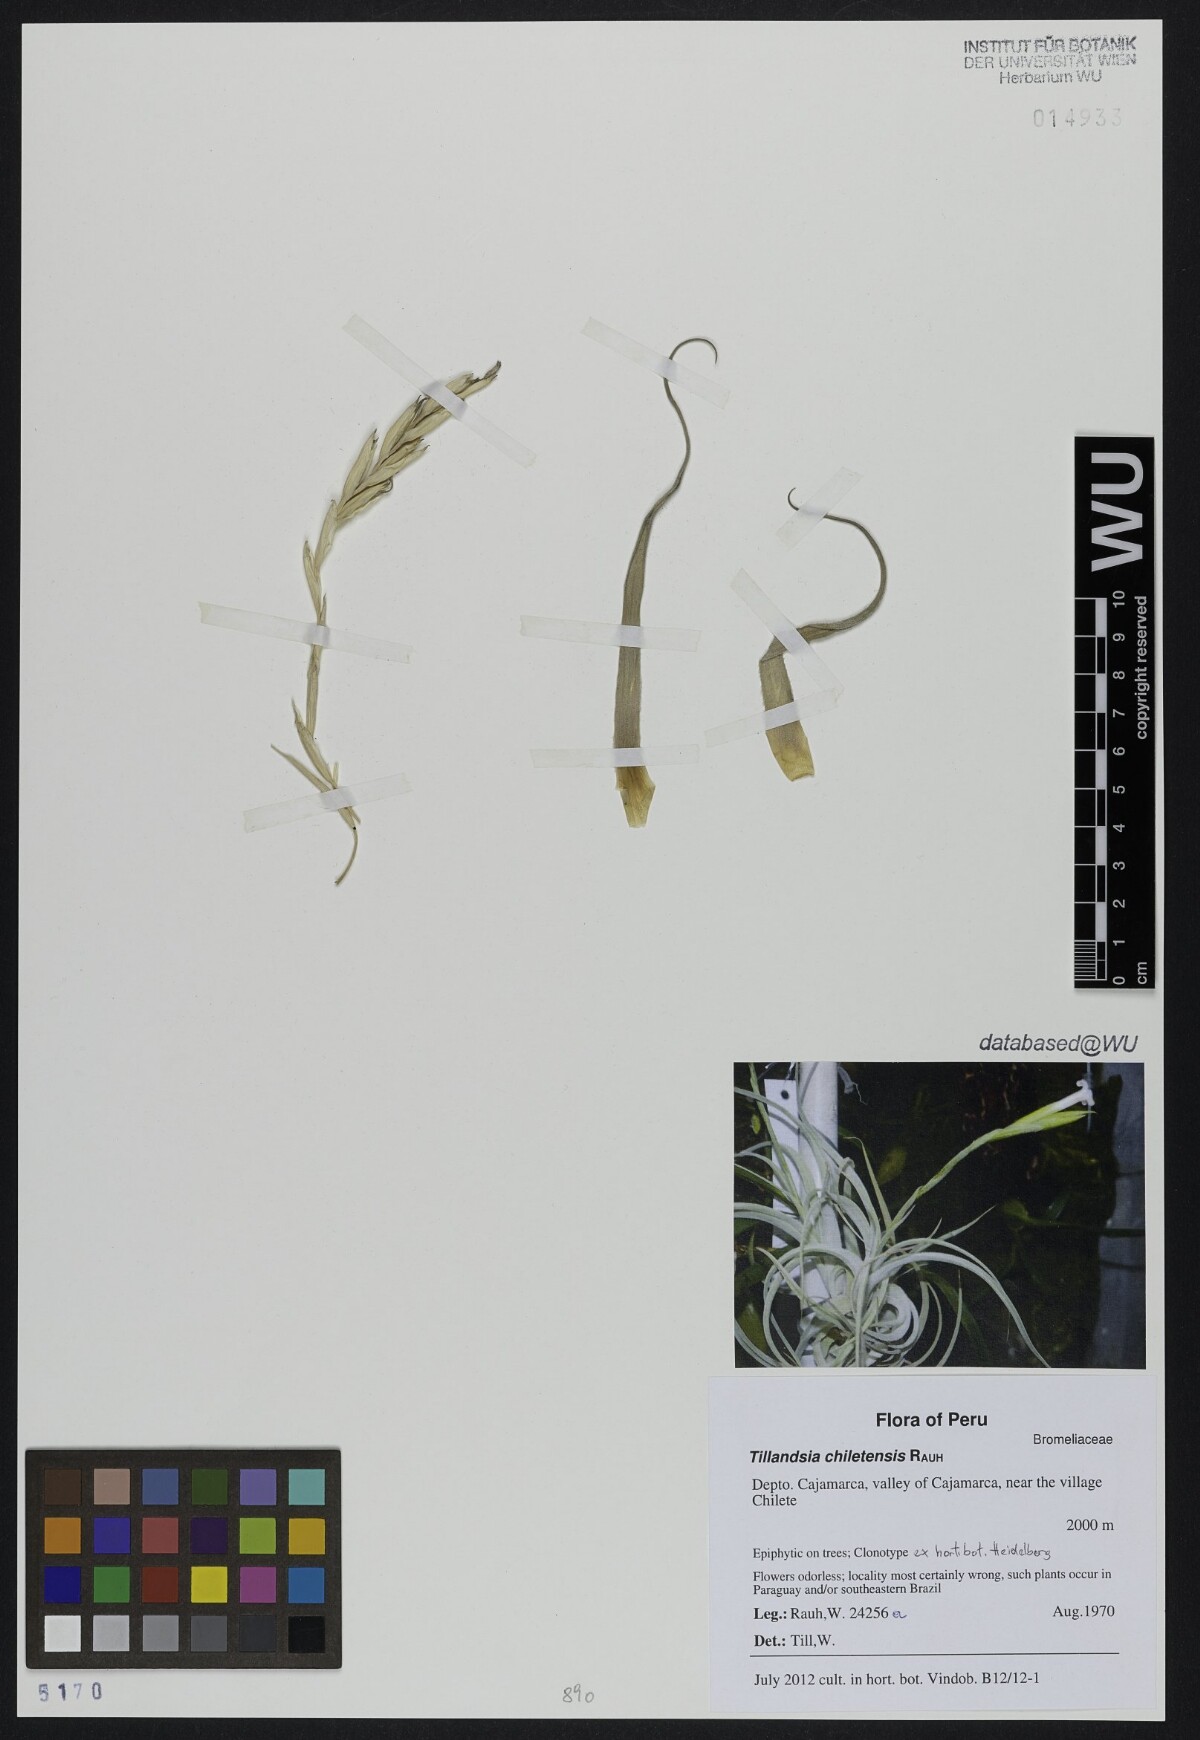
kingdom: Plantae
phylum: Tracheophyta
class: Liliopsida
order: Poales
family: Bromeliaceae
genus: Tillandsia
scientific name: Tillandsia chiletensis
